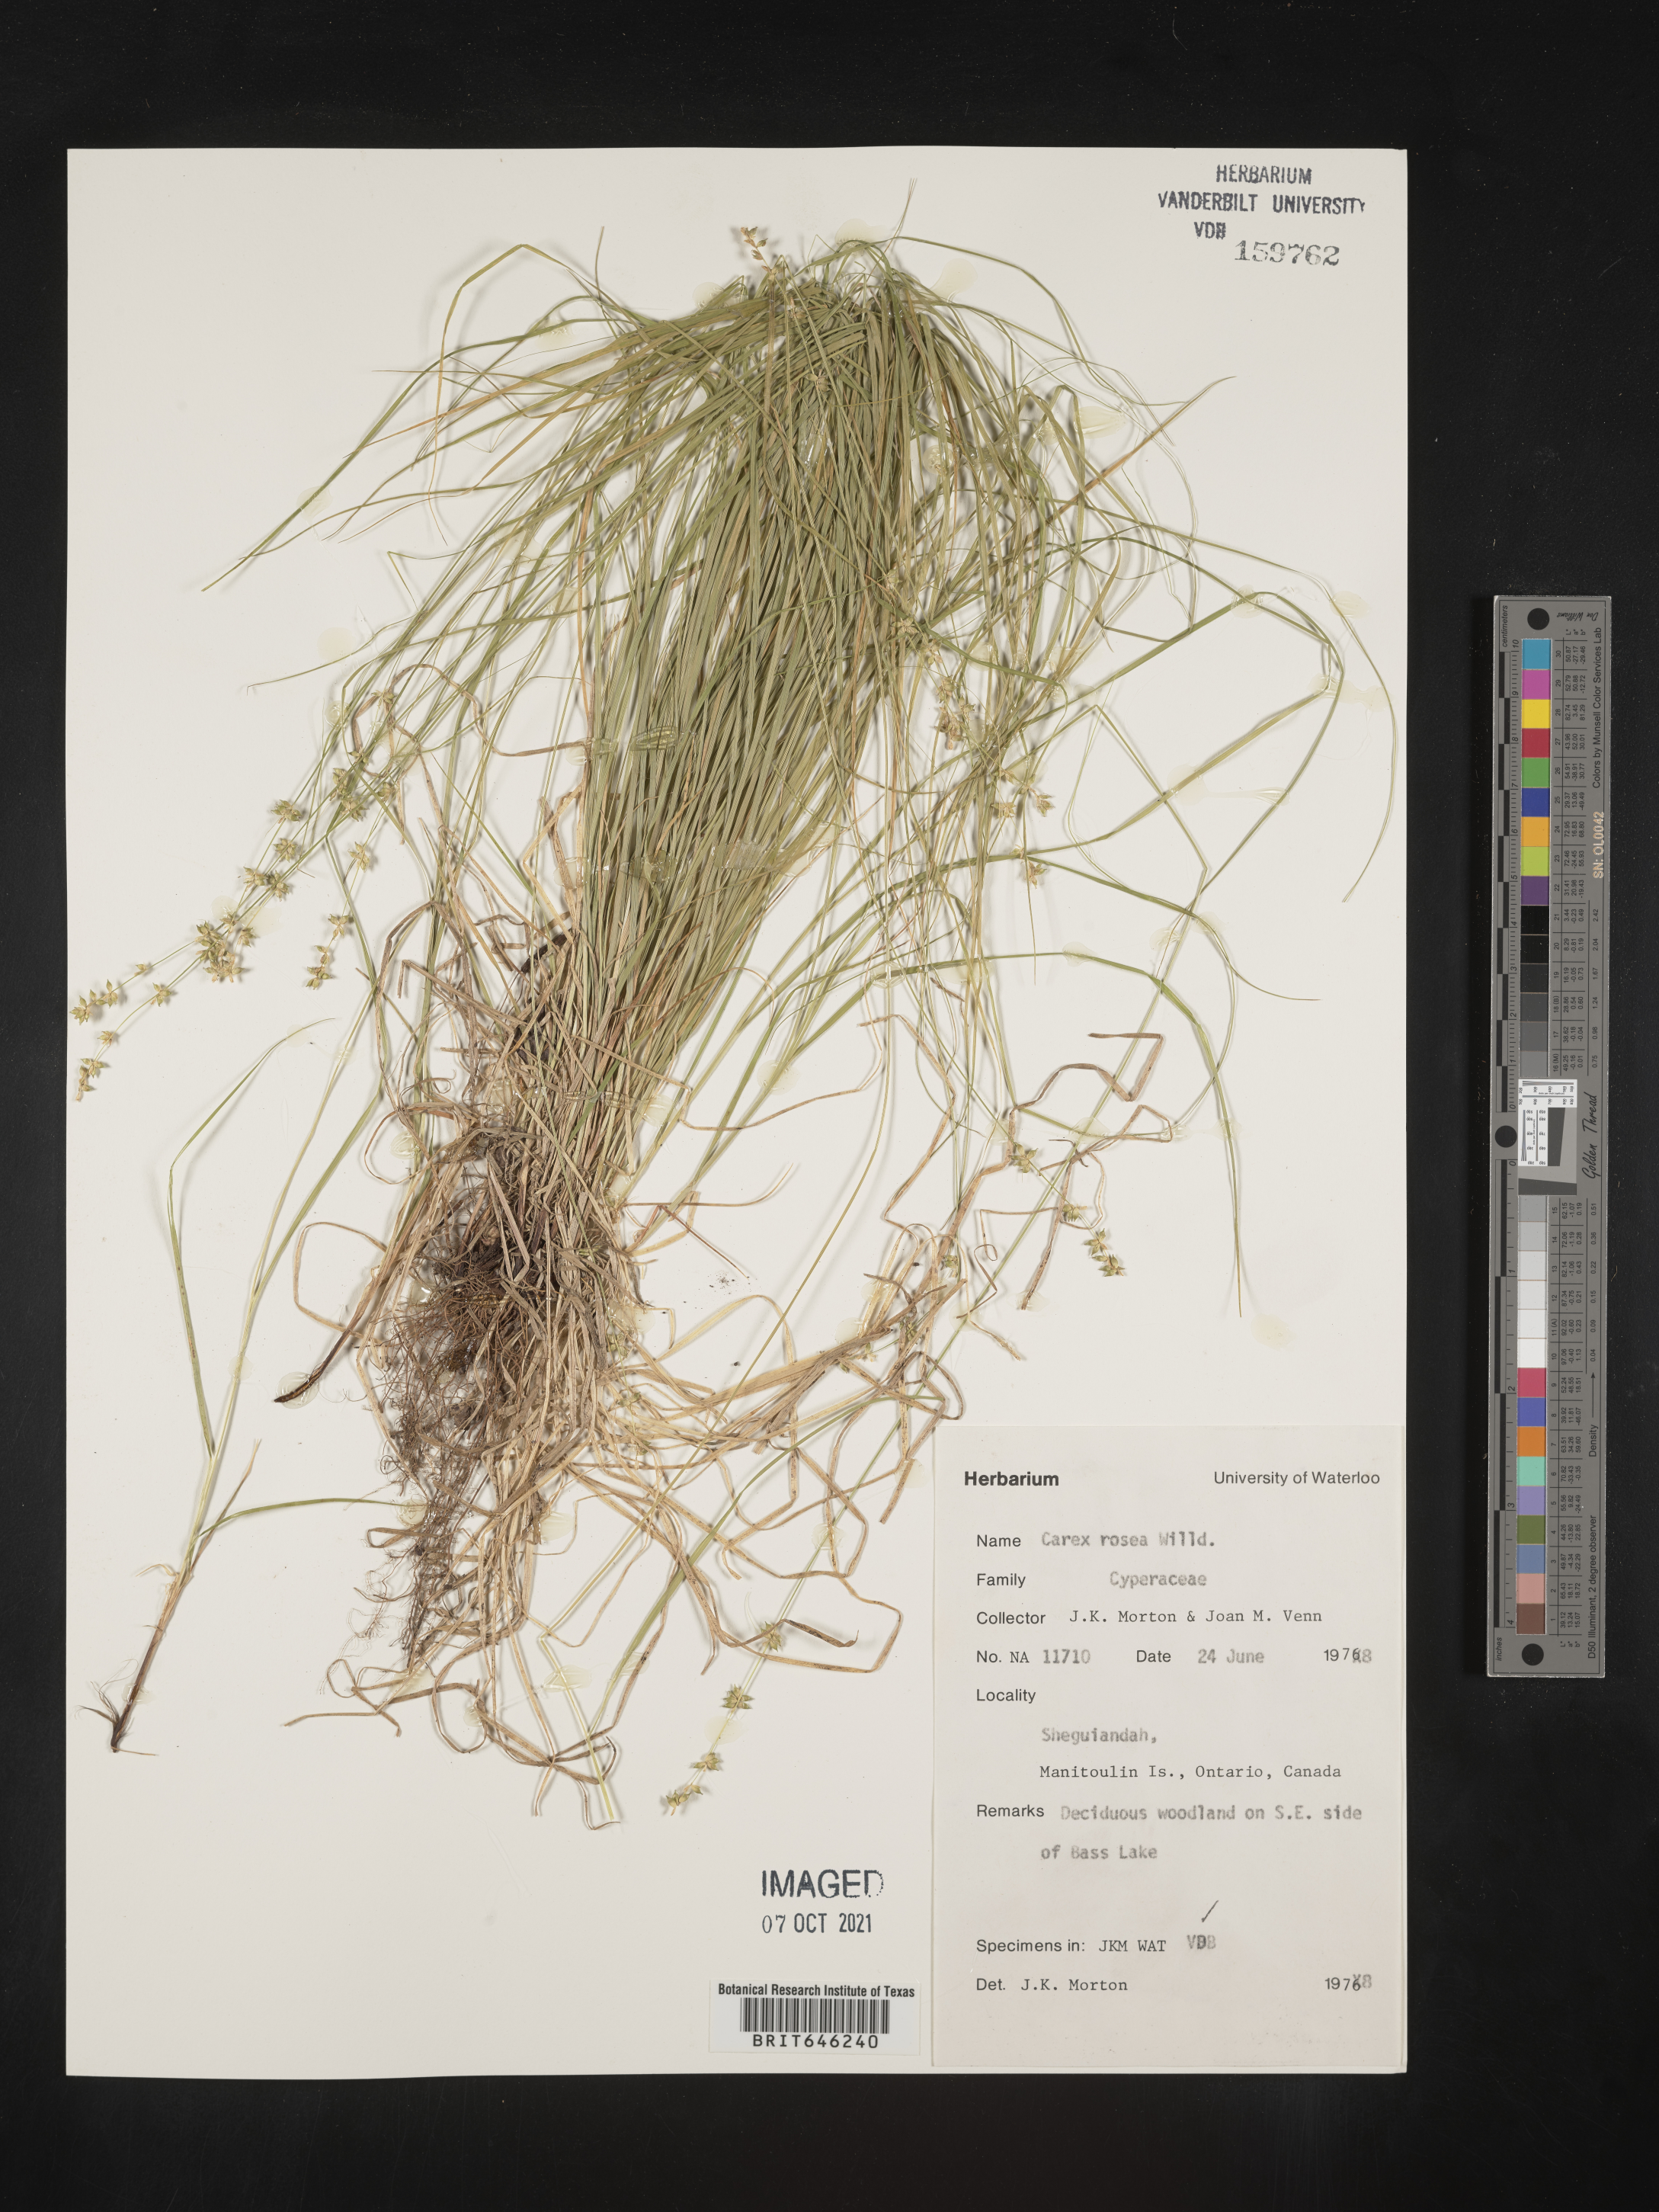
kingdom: Plantae
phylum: Tracheophyta
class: Liliopsida
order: Poales
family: Cyperaceae
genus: Carex
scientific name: Carex rosea
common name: Curly-styled wood sedge
